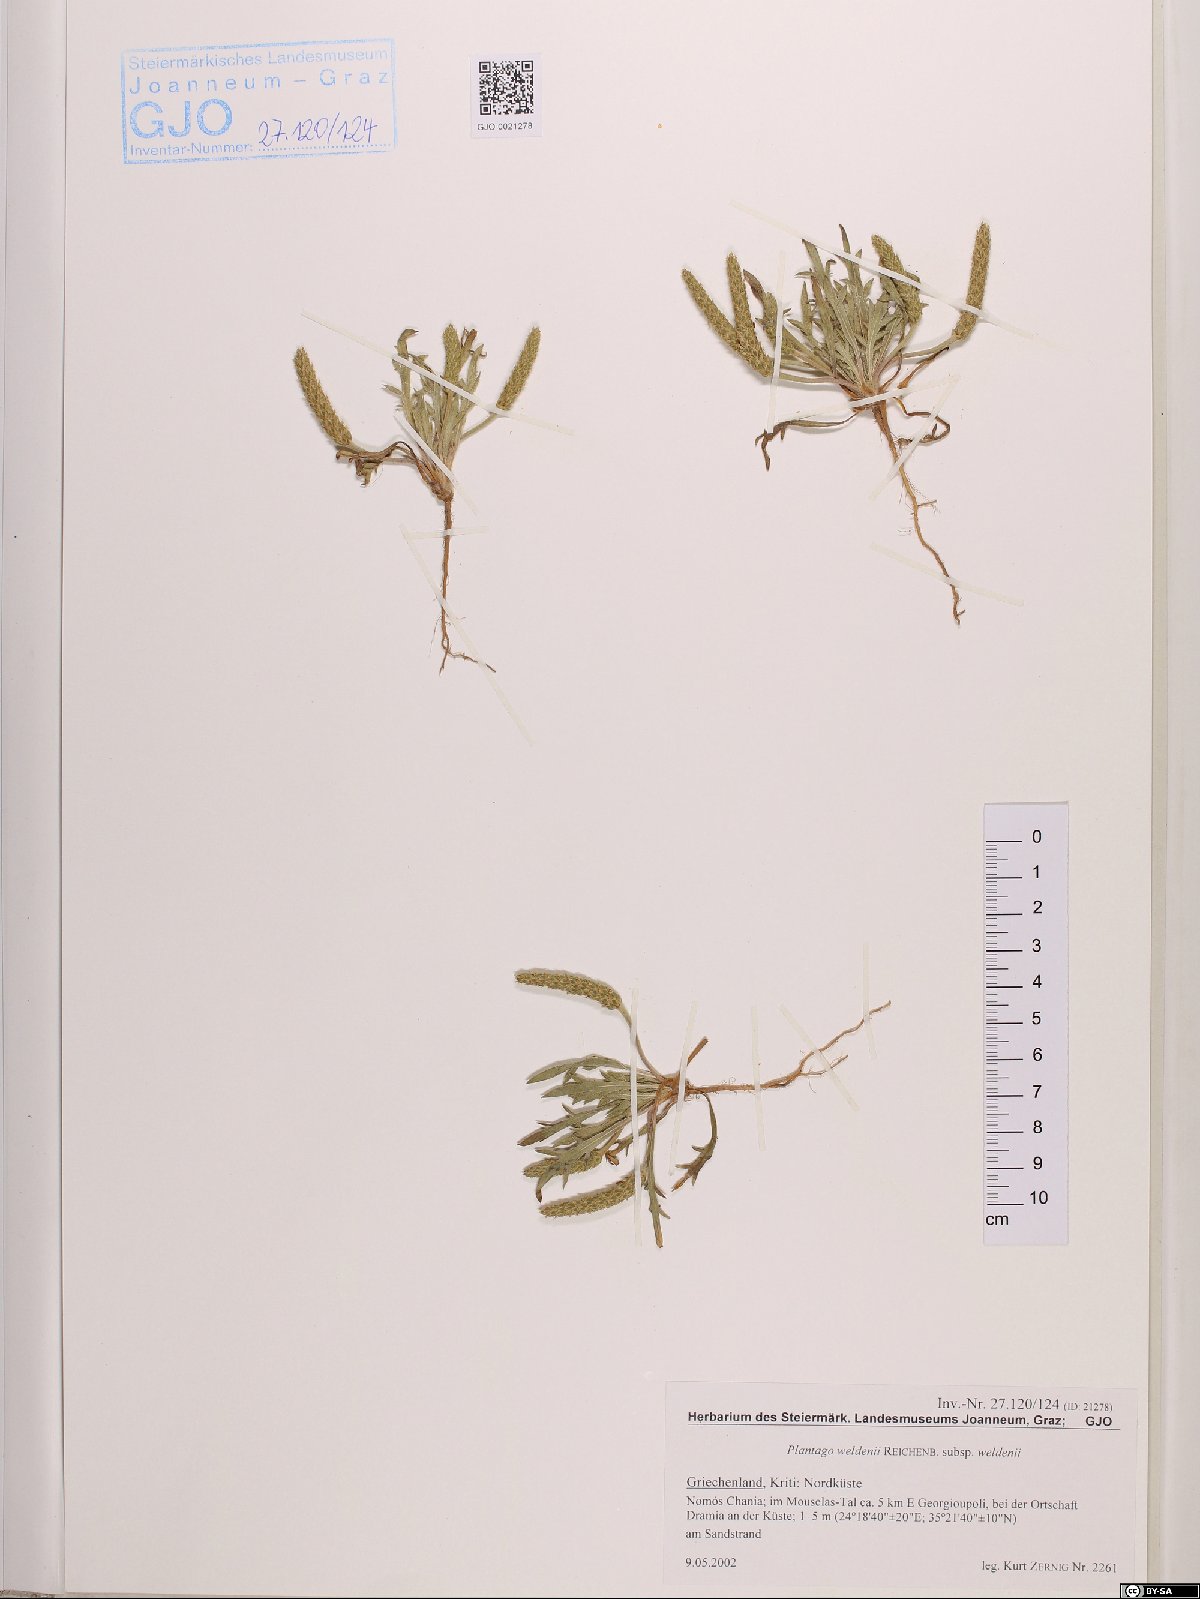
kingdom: Plantae
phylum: Tracheophyta
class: Magnoliopsida
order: Lamiales
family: Plantaginaceae
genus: Plantago
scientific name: Plantago weldenii
